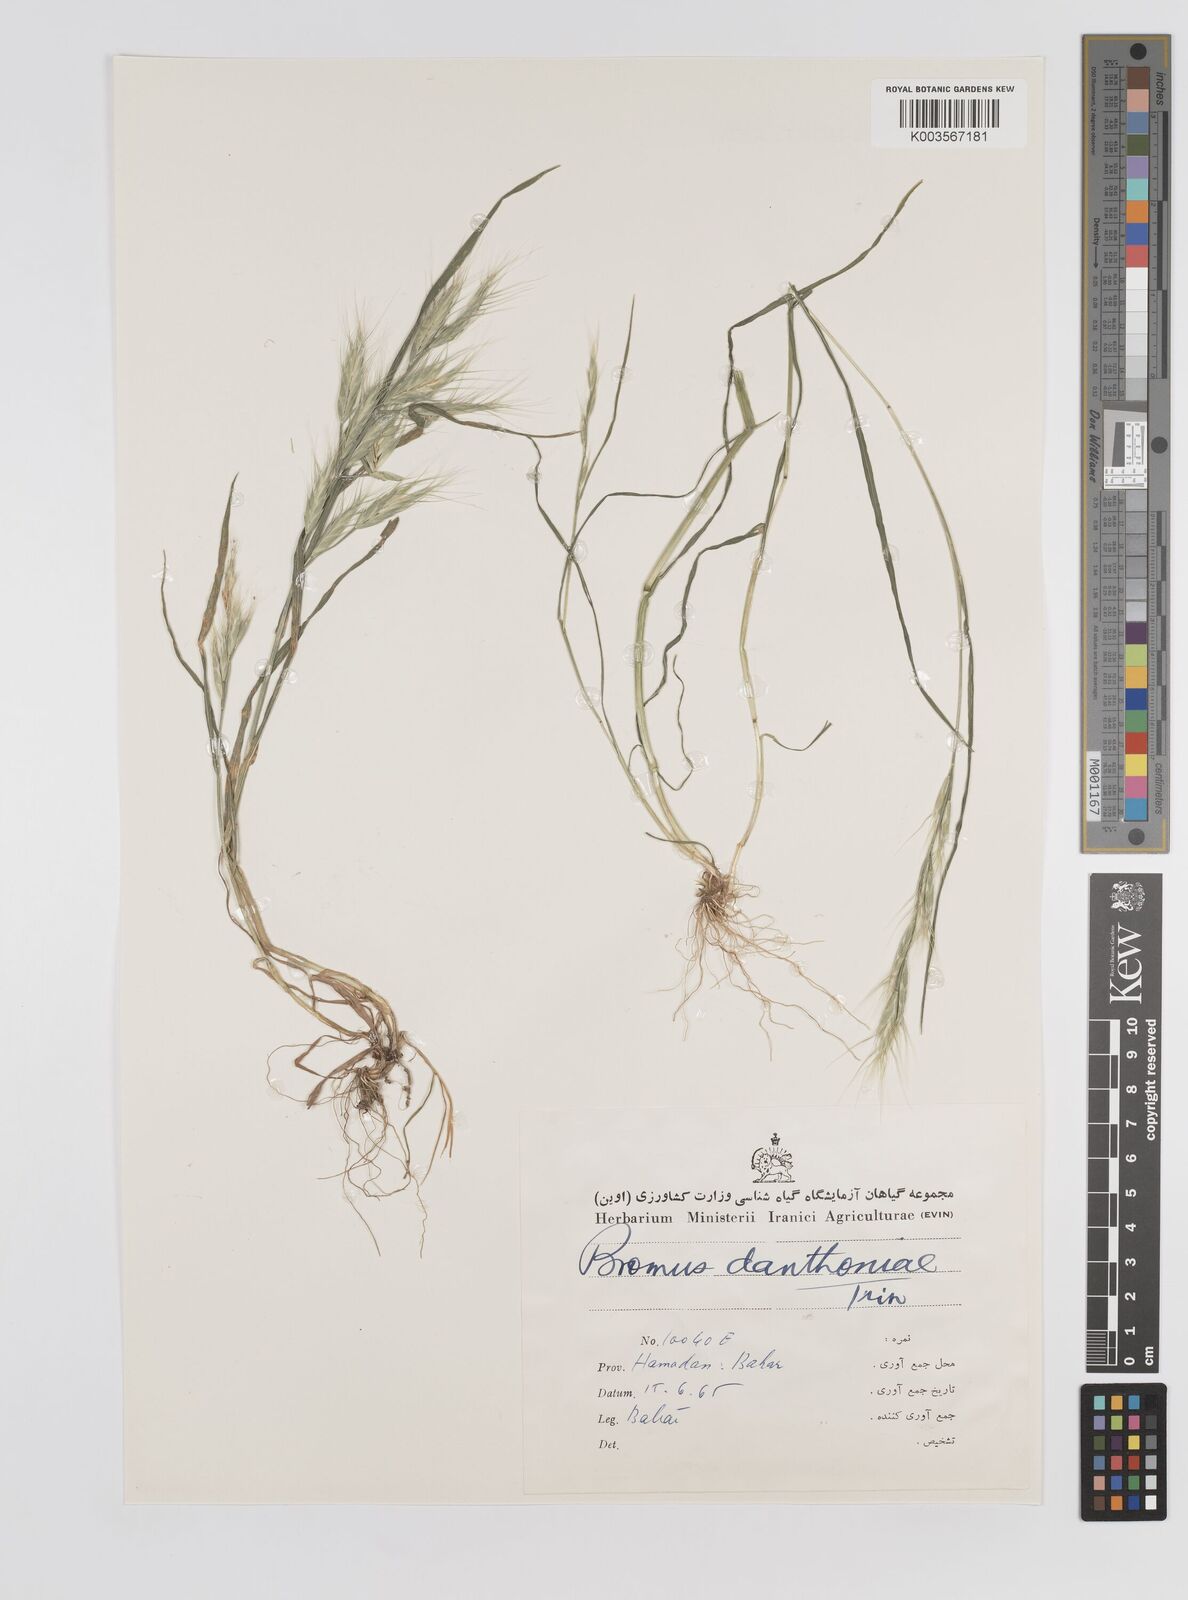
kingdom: Plantae
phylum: Tracheophyta
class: Liliopsida
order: Poales
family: Poaceae
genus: Bromus
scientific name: Bromus danthoniae
